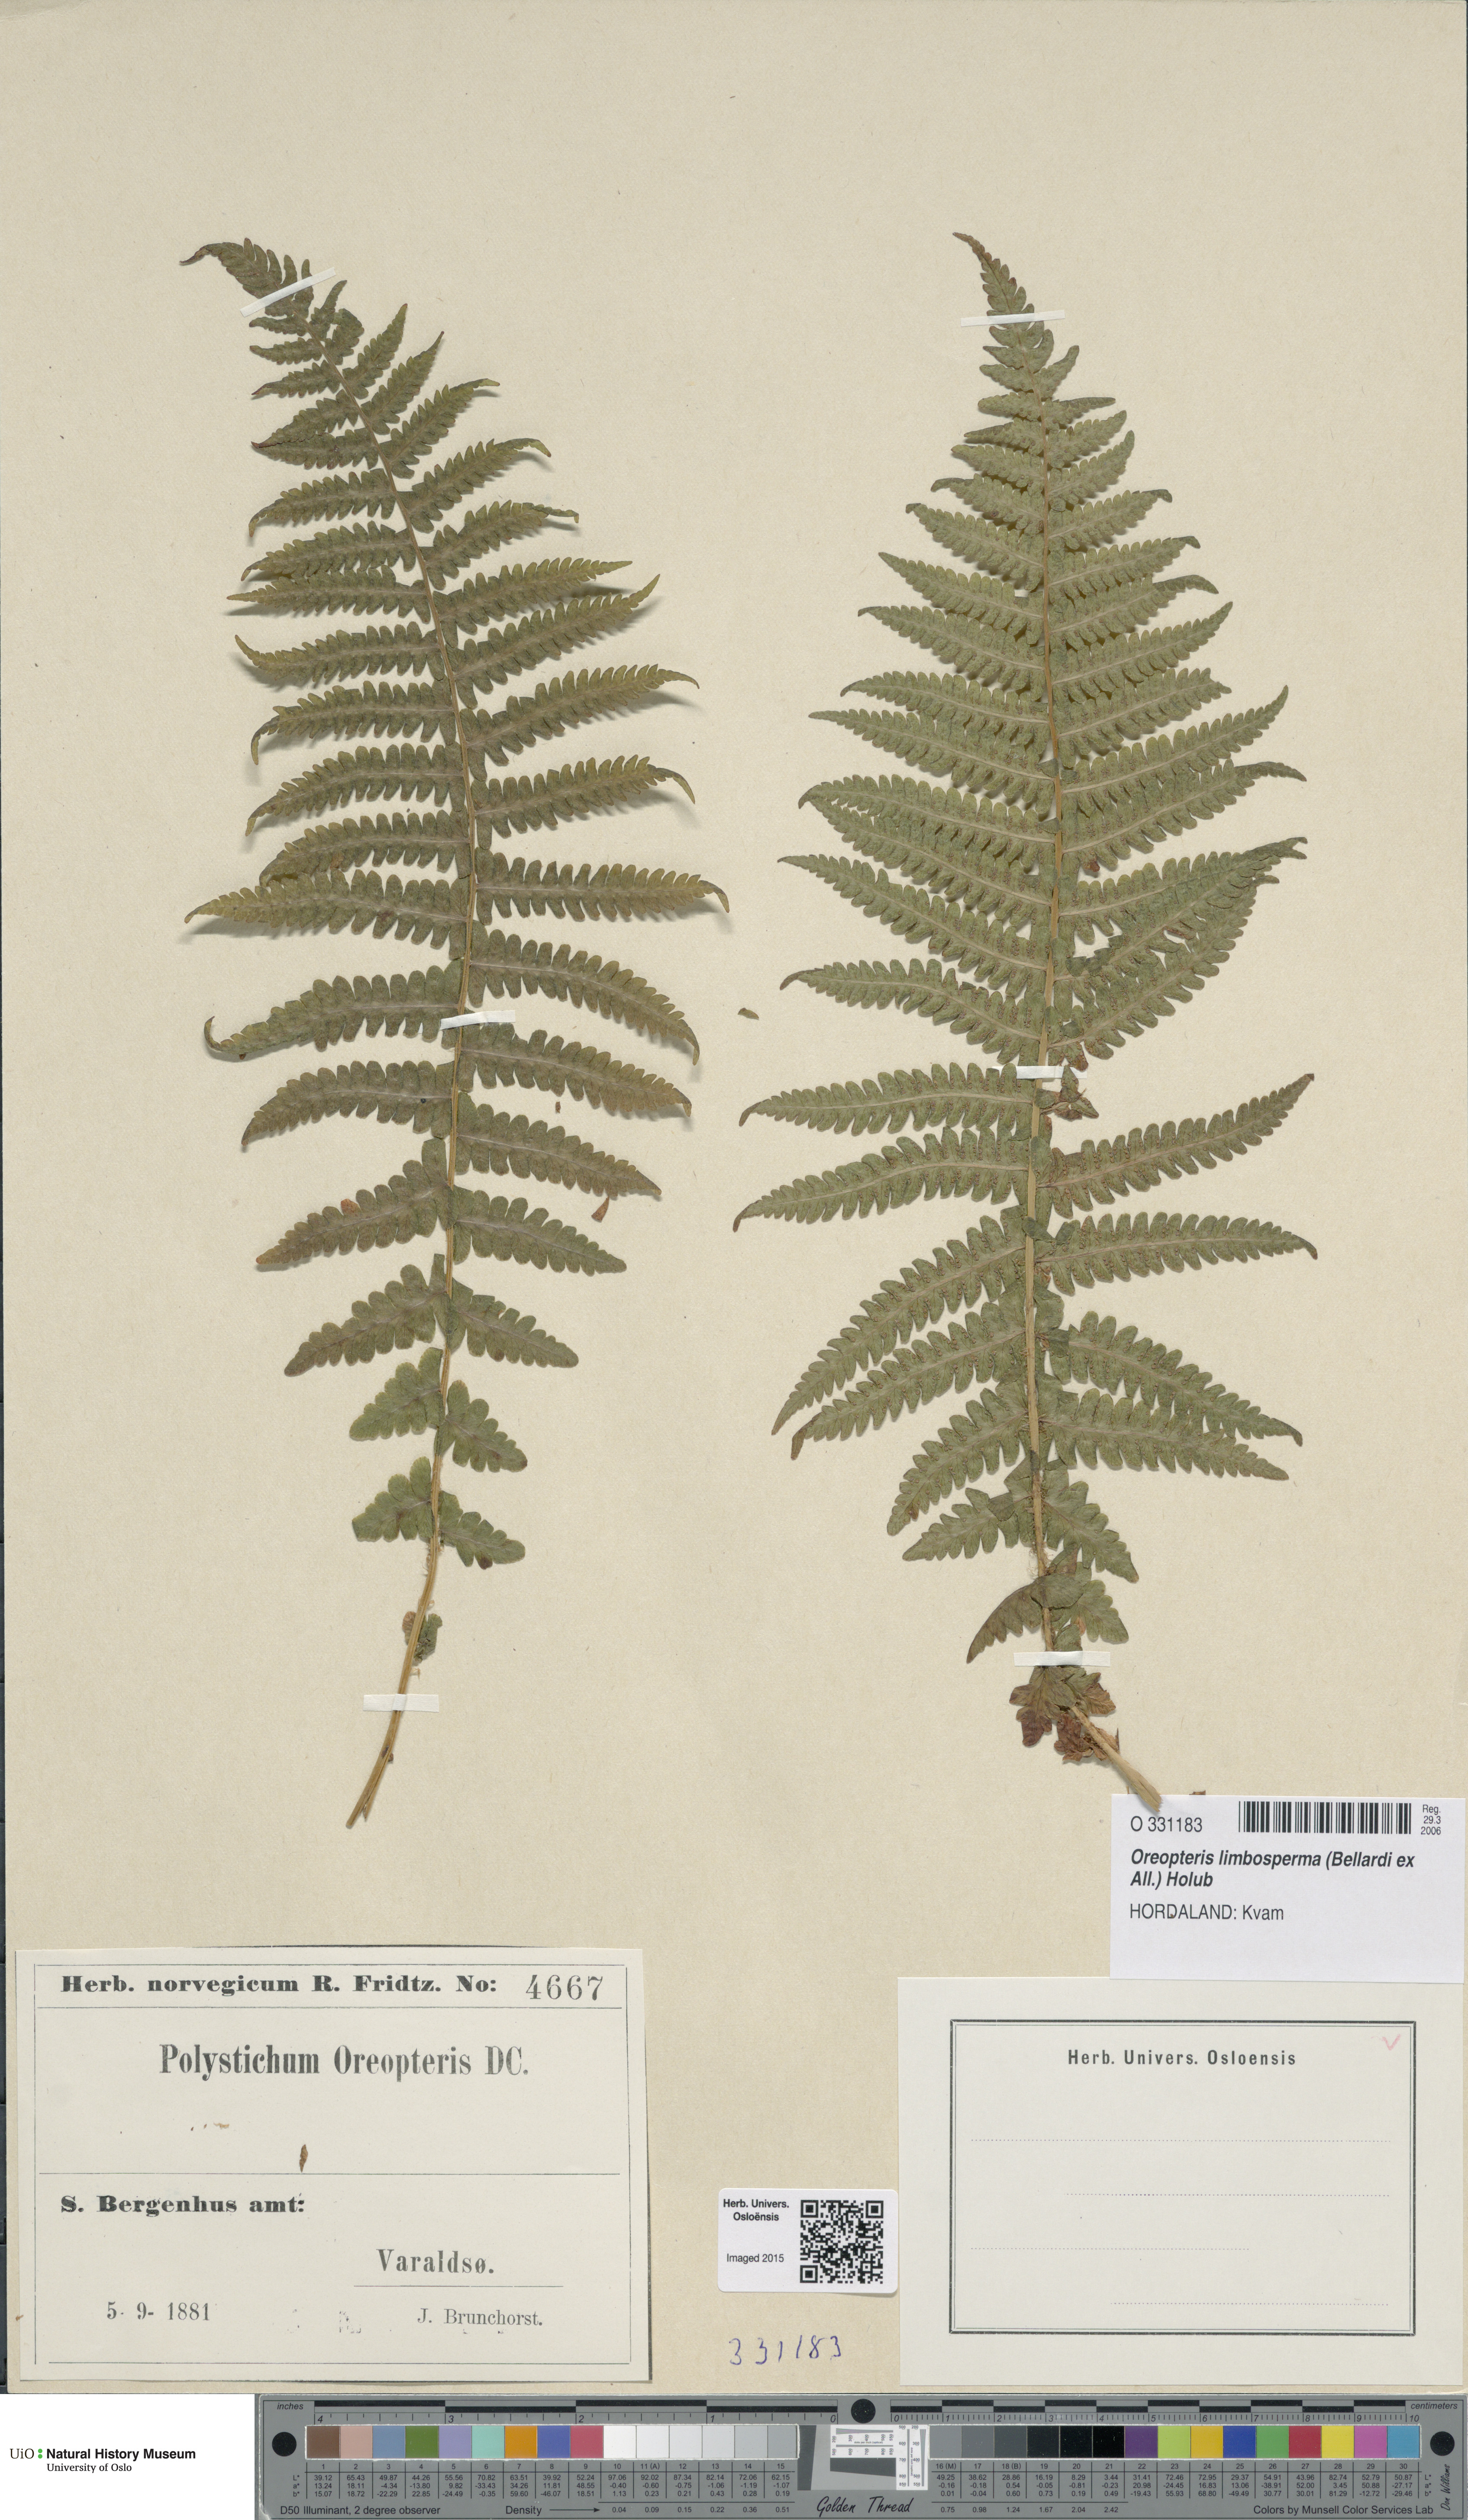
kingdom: Plantae
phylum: Tracheophyta
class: Polypodiopsida
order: Polypodiales
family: Thelypteridaceae
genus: Oreopteris
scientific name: Oreopteris limbosperma
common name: Lemon-scented fern
